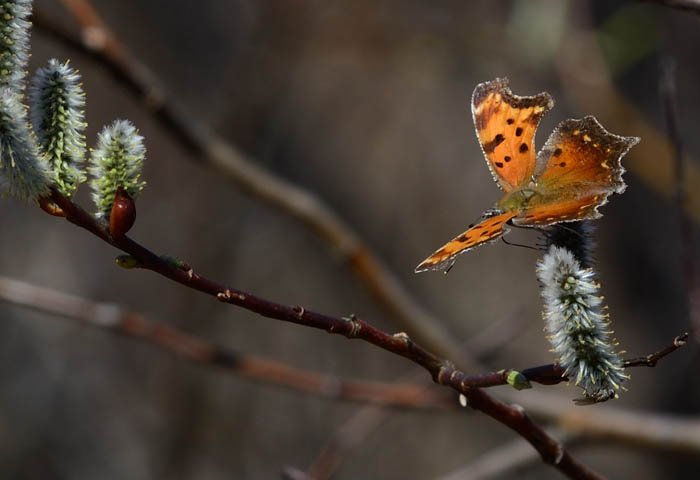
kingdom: Animalia
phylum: Arthropoda
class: Insecta
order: Lepidoptera
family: Nymphalidae
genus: Polygonia
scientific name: Polygonia progne
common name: Gray Comma
